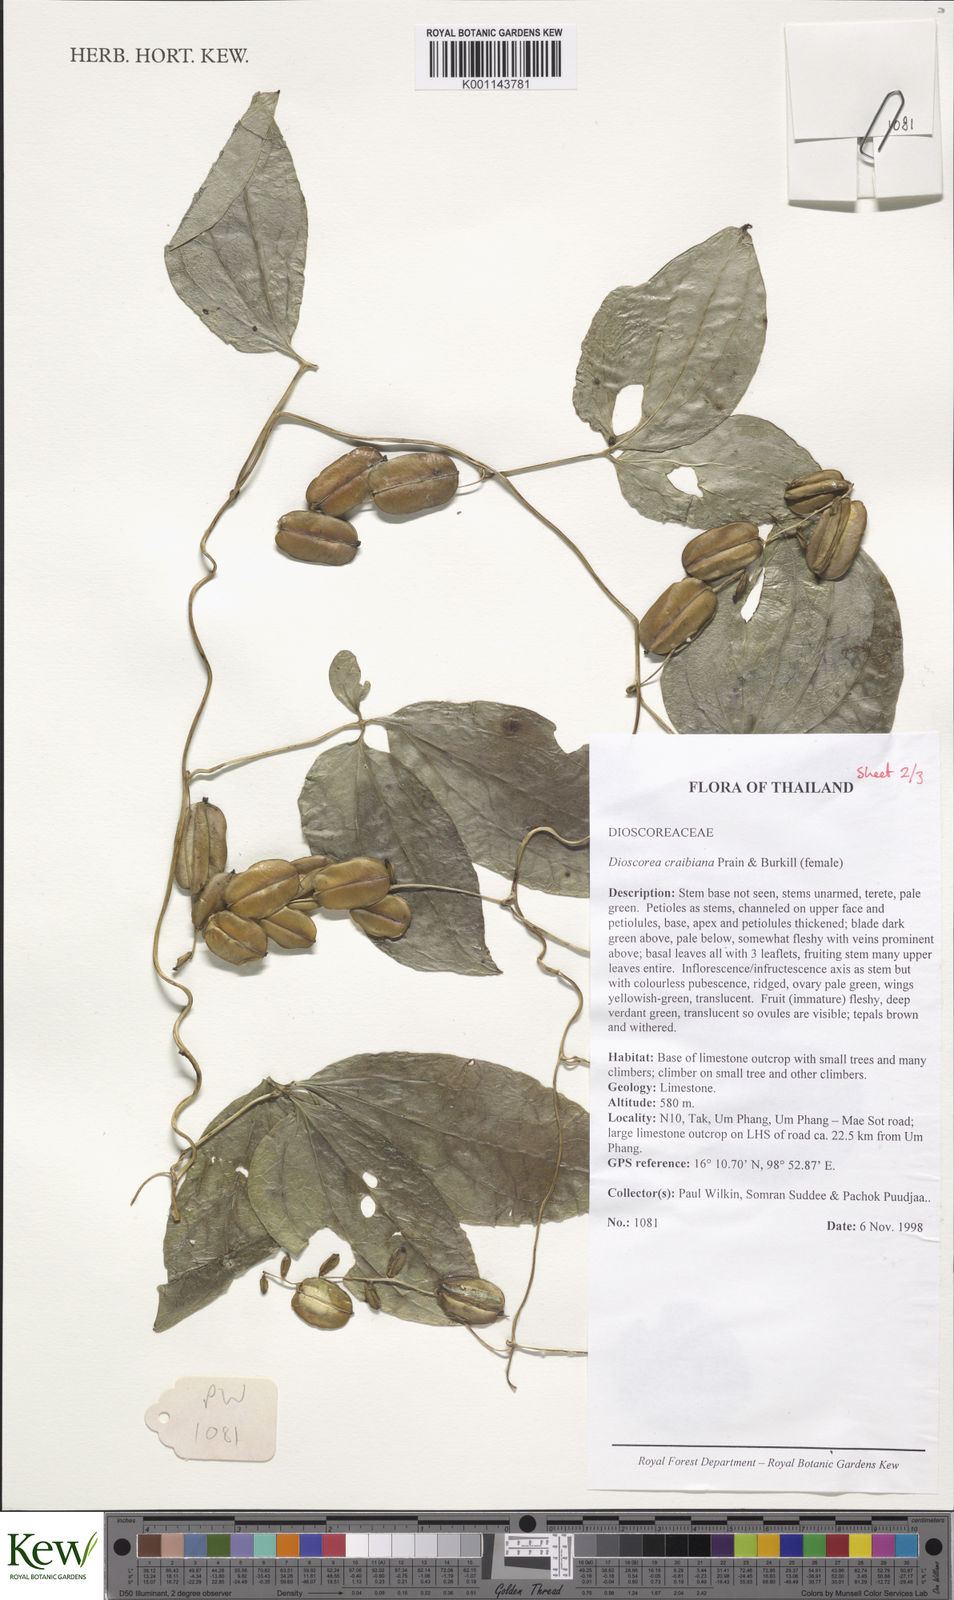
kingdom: Plantae
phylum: Tracheophyta
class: Liliopsida
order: Dioscoreales
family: Dioscoreaceae
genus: Dioscorea
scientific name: Dioscorea craibiana
